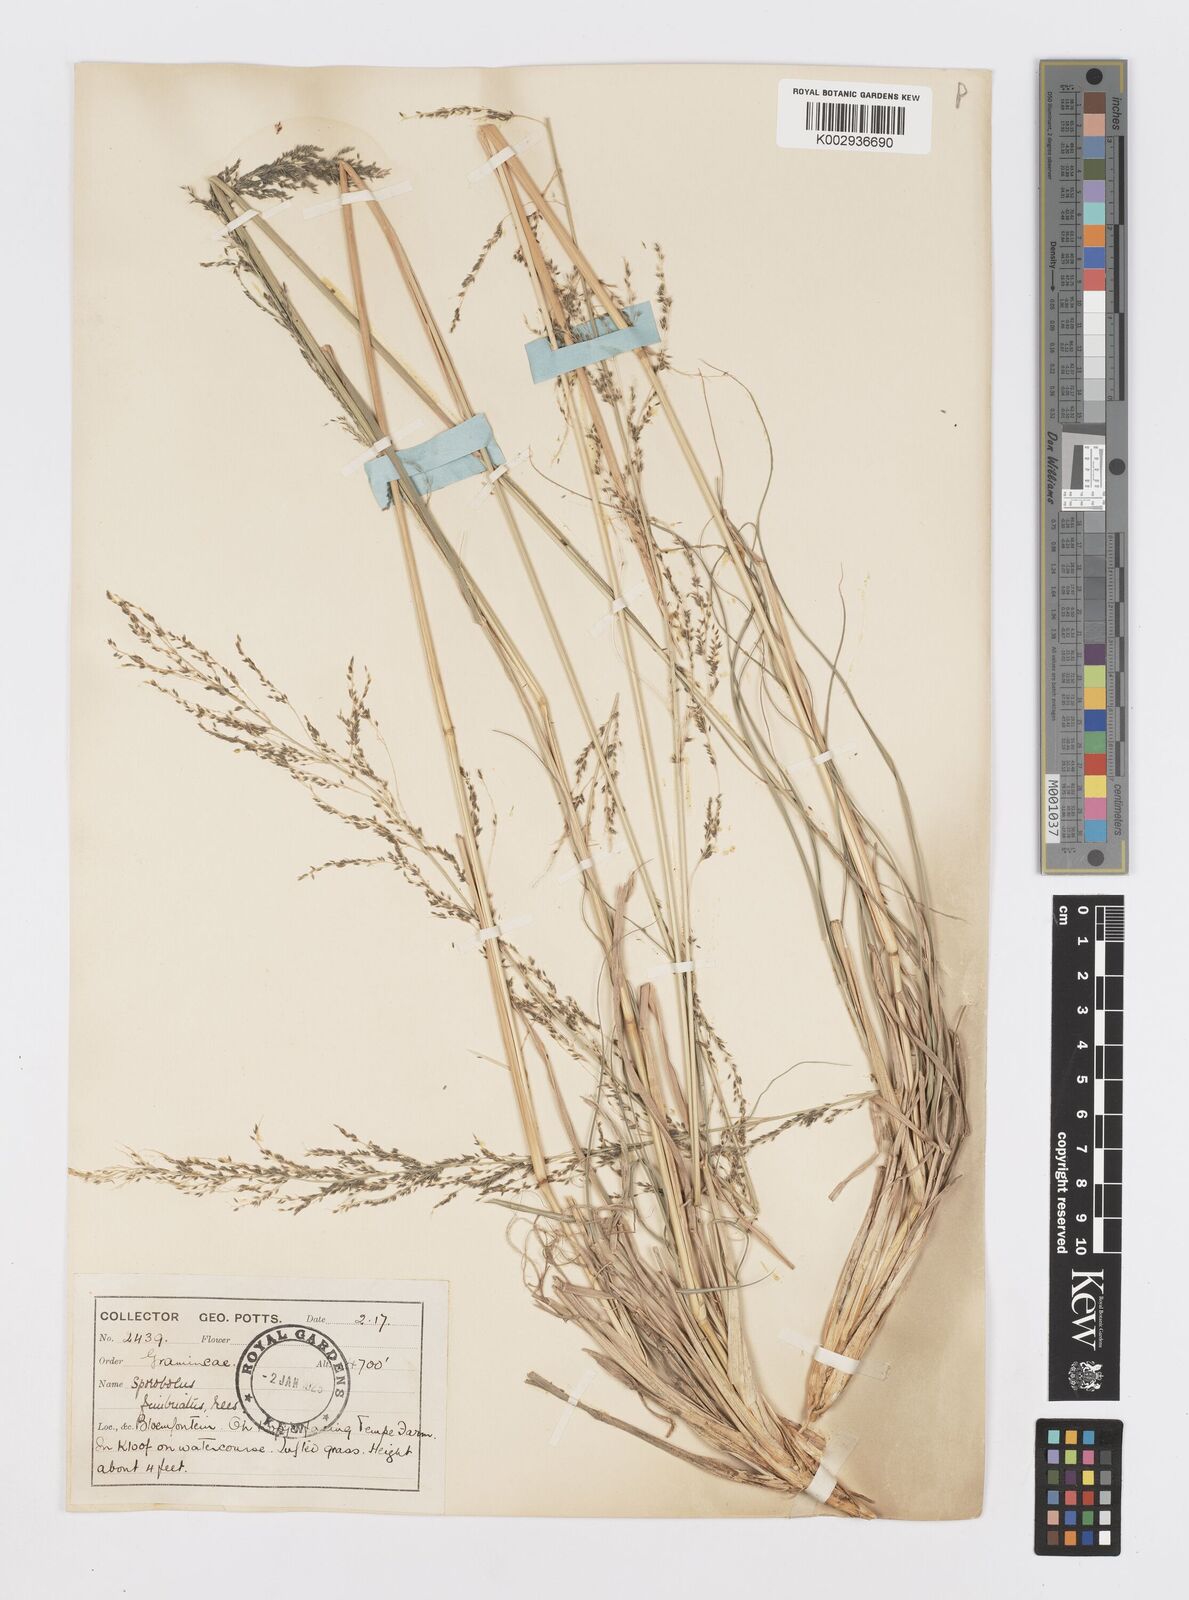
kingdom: Plantae
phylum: Tracheophyta
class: Liliopsida
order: Poales
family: Poaceae
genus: Sporobolus
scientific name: Sporobolus fimbriatus
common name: Fringed dropseed
